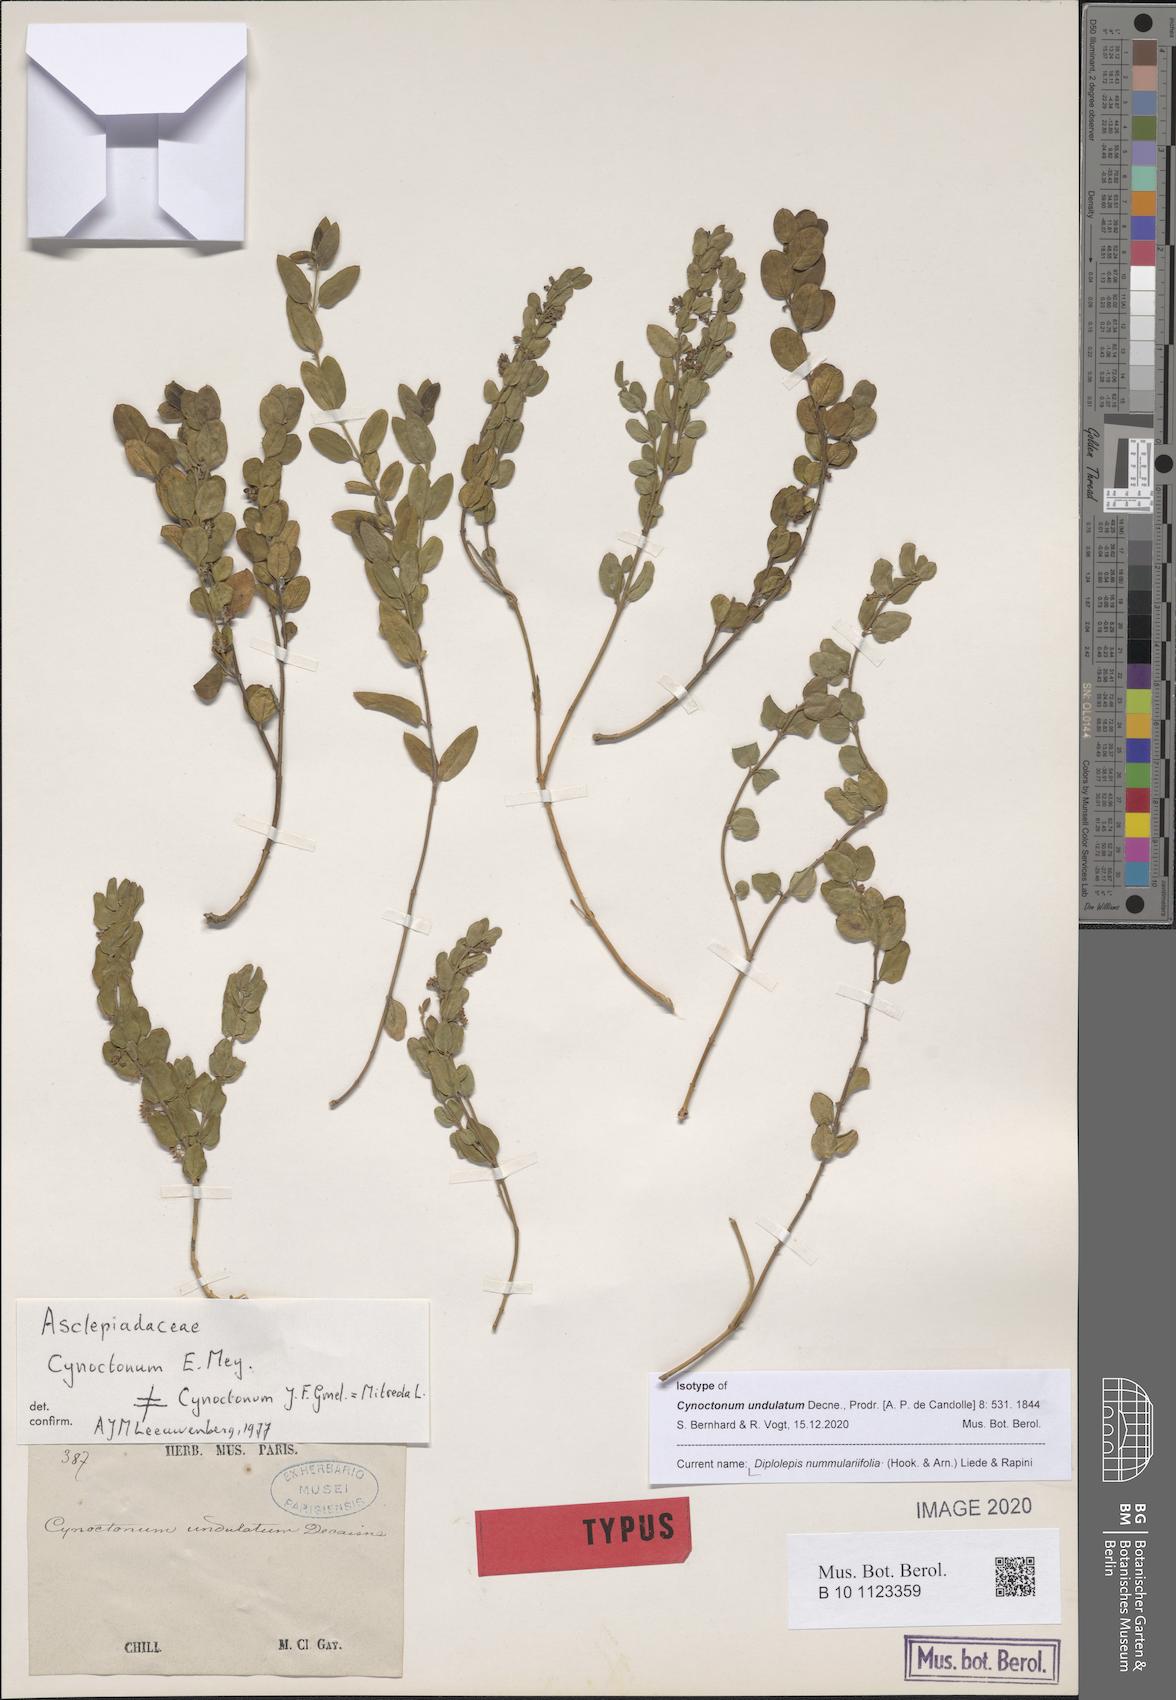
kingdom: Plantae
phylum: Tracheophyta
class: Magnoliopsida
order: Gentianales
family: Apocynaceae
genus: Diplolepis
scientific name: Diplolepis nummulariifolia
